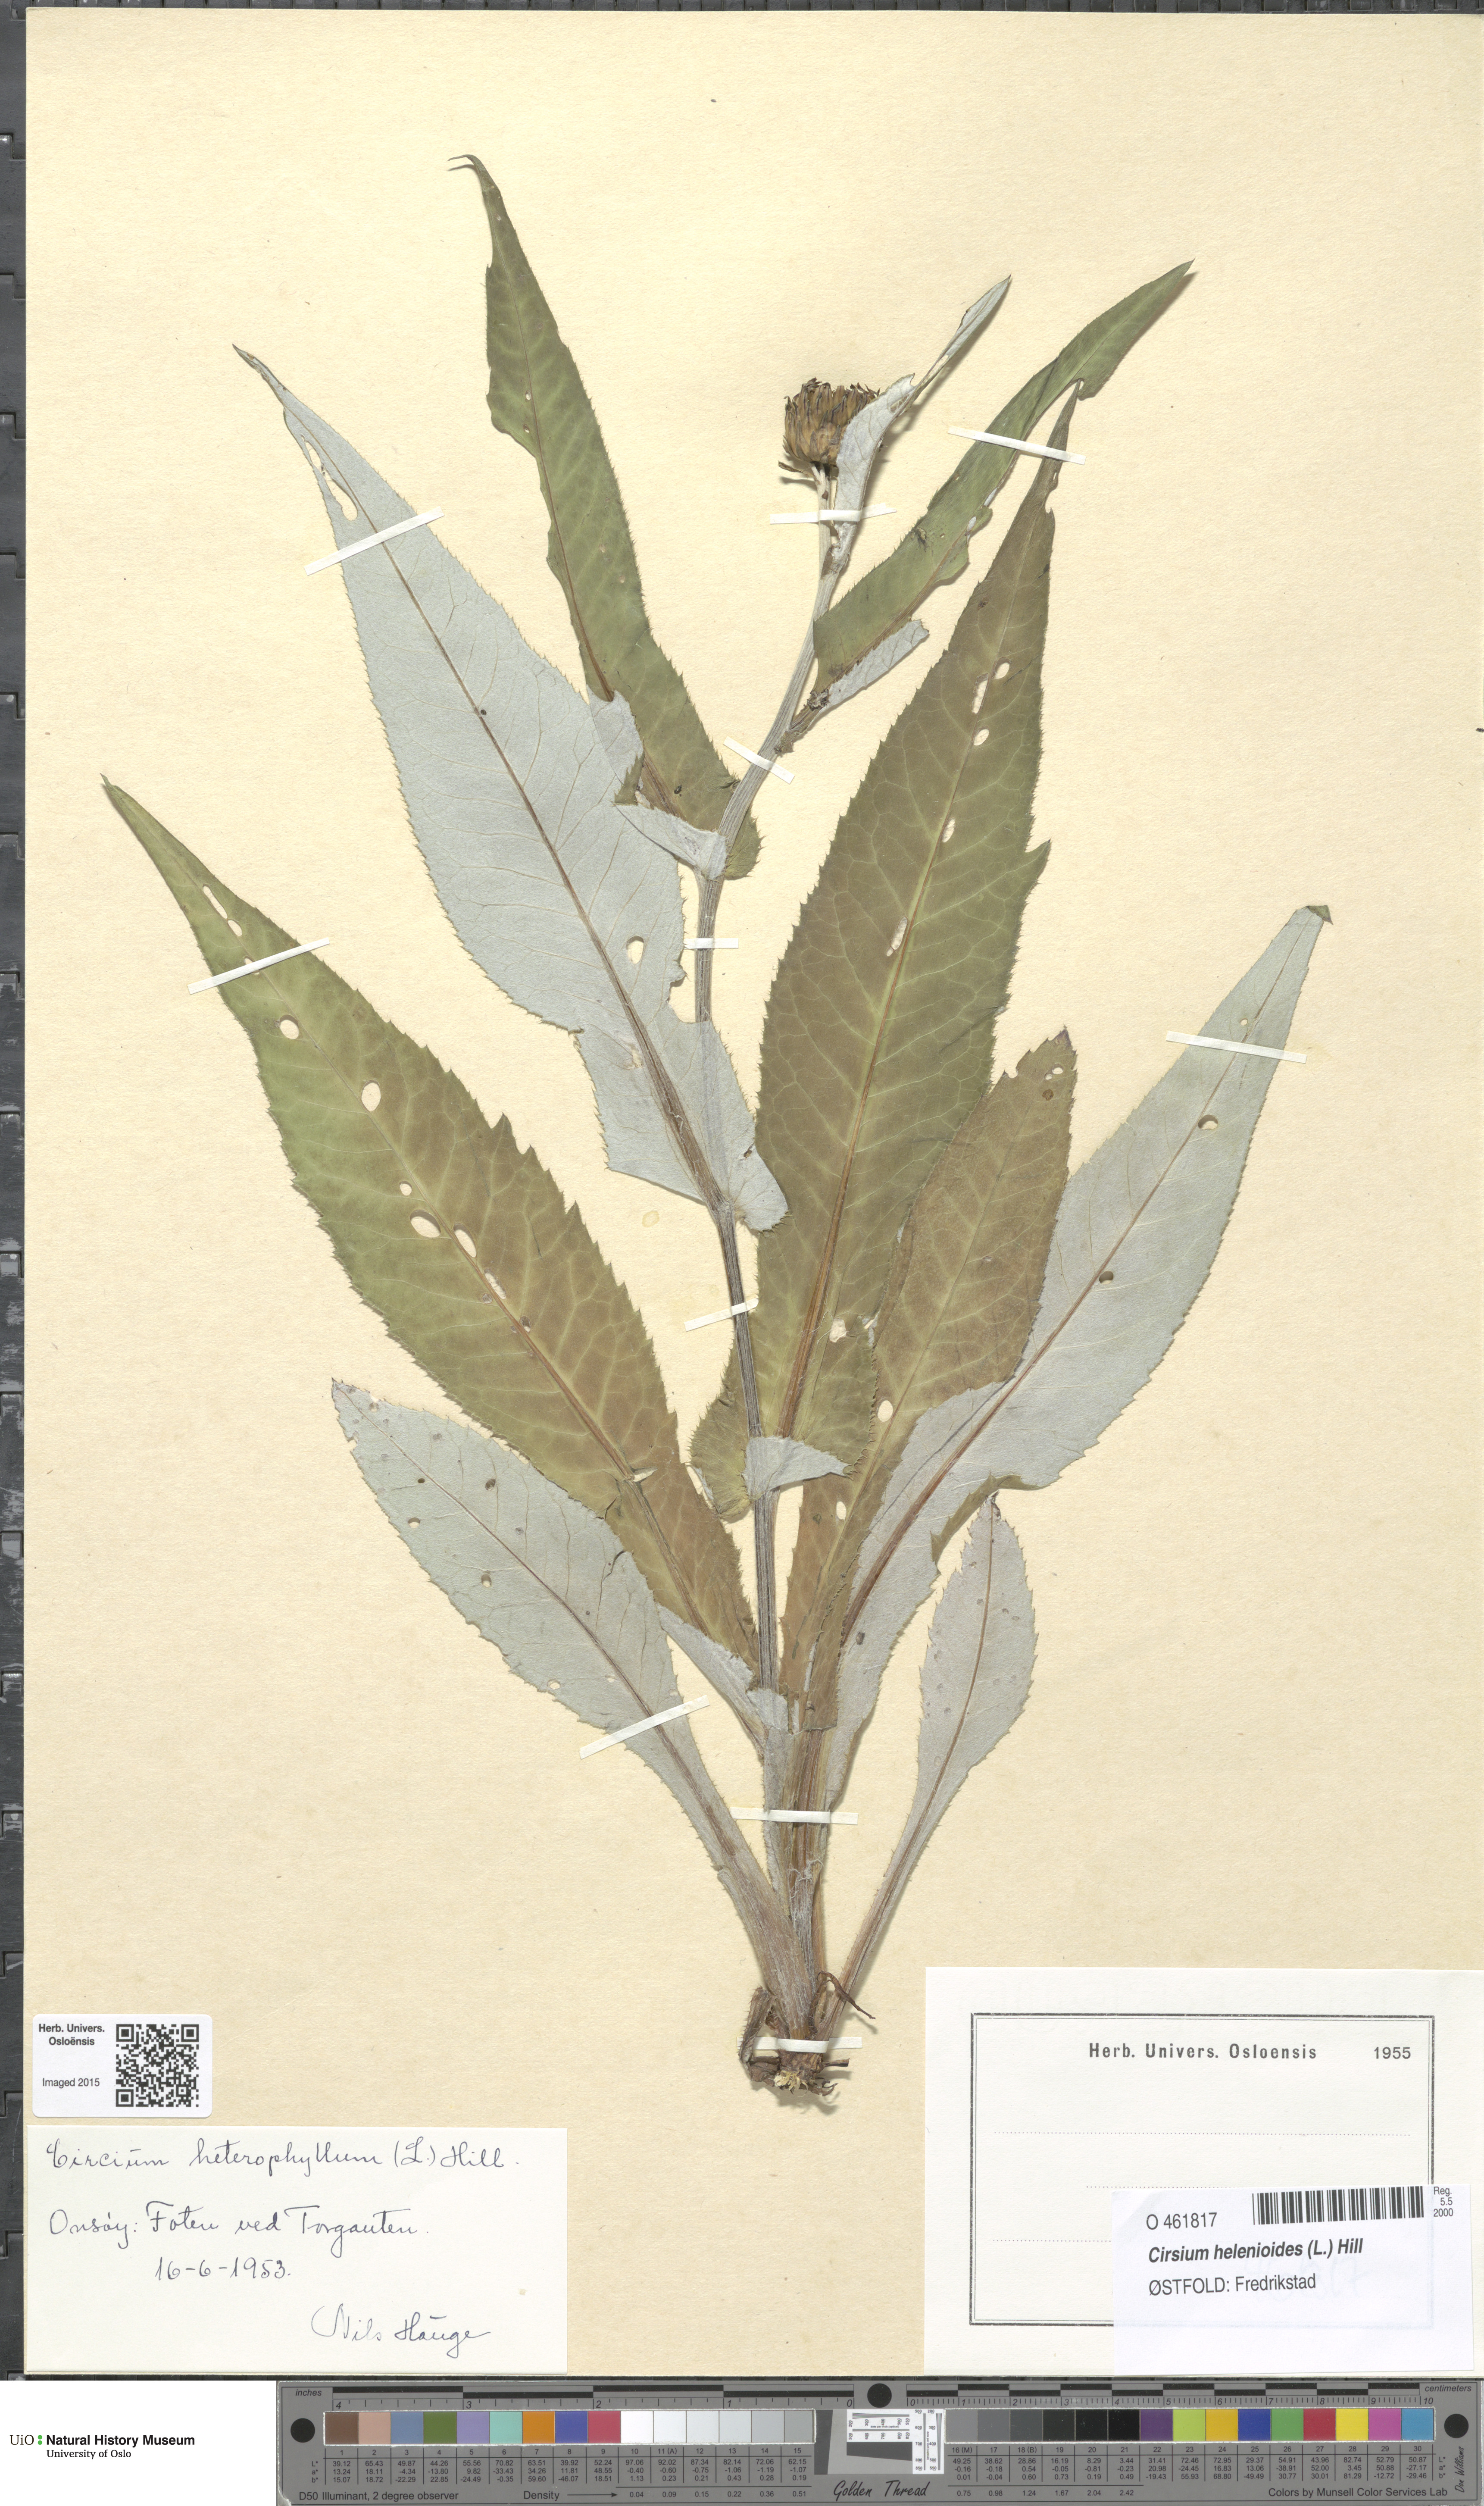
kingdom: Plantae
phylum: Tracheophyta
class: Magnoliopsida
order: Asterales
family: Asteraceae
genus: Cirsium
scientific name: Cirsium heterophyllum
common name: Melancholy thistle
